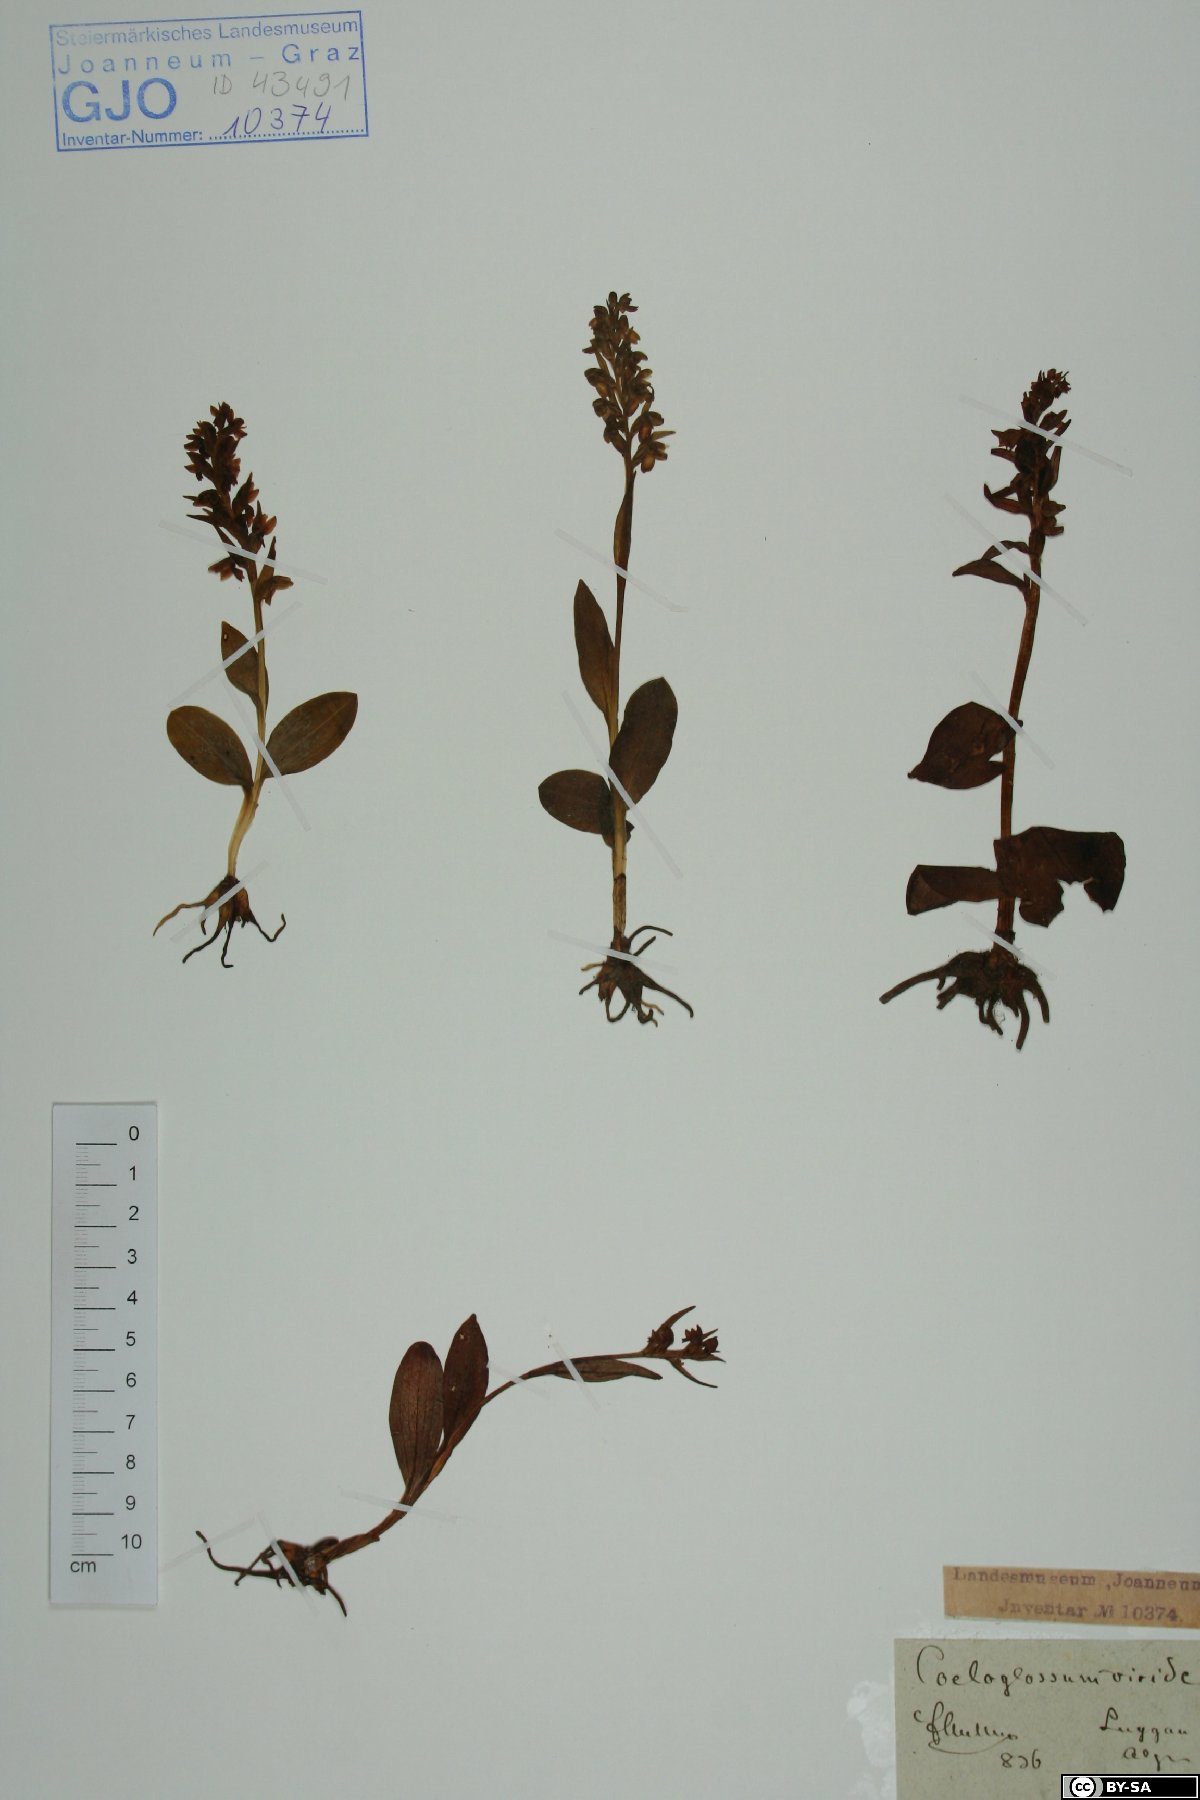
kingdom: Plantae
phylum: Tracheophyta
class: Liliopsida
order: Asparagales
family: Orchidaceae
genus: Dactylorhiza
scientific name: Dactylorhiza viridis
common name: Longbract frog orchid
